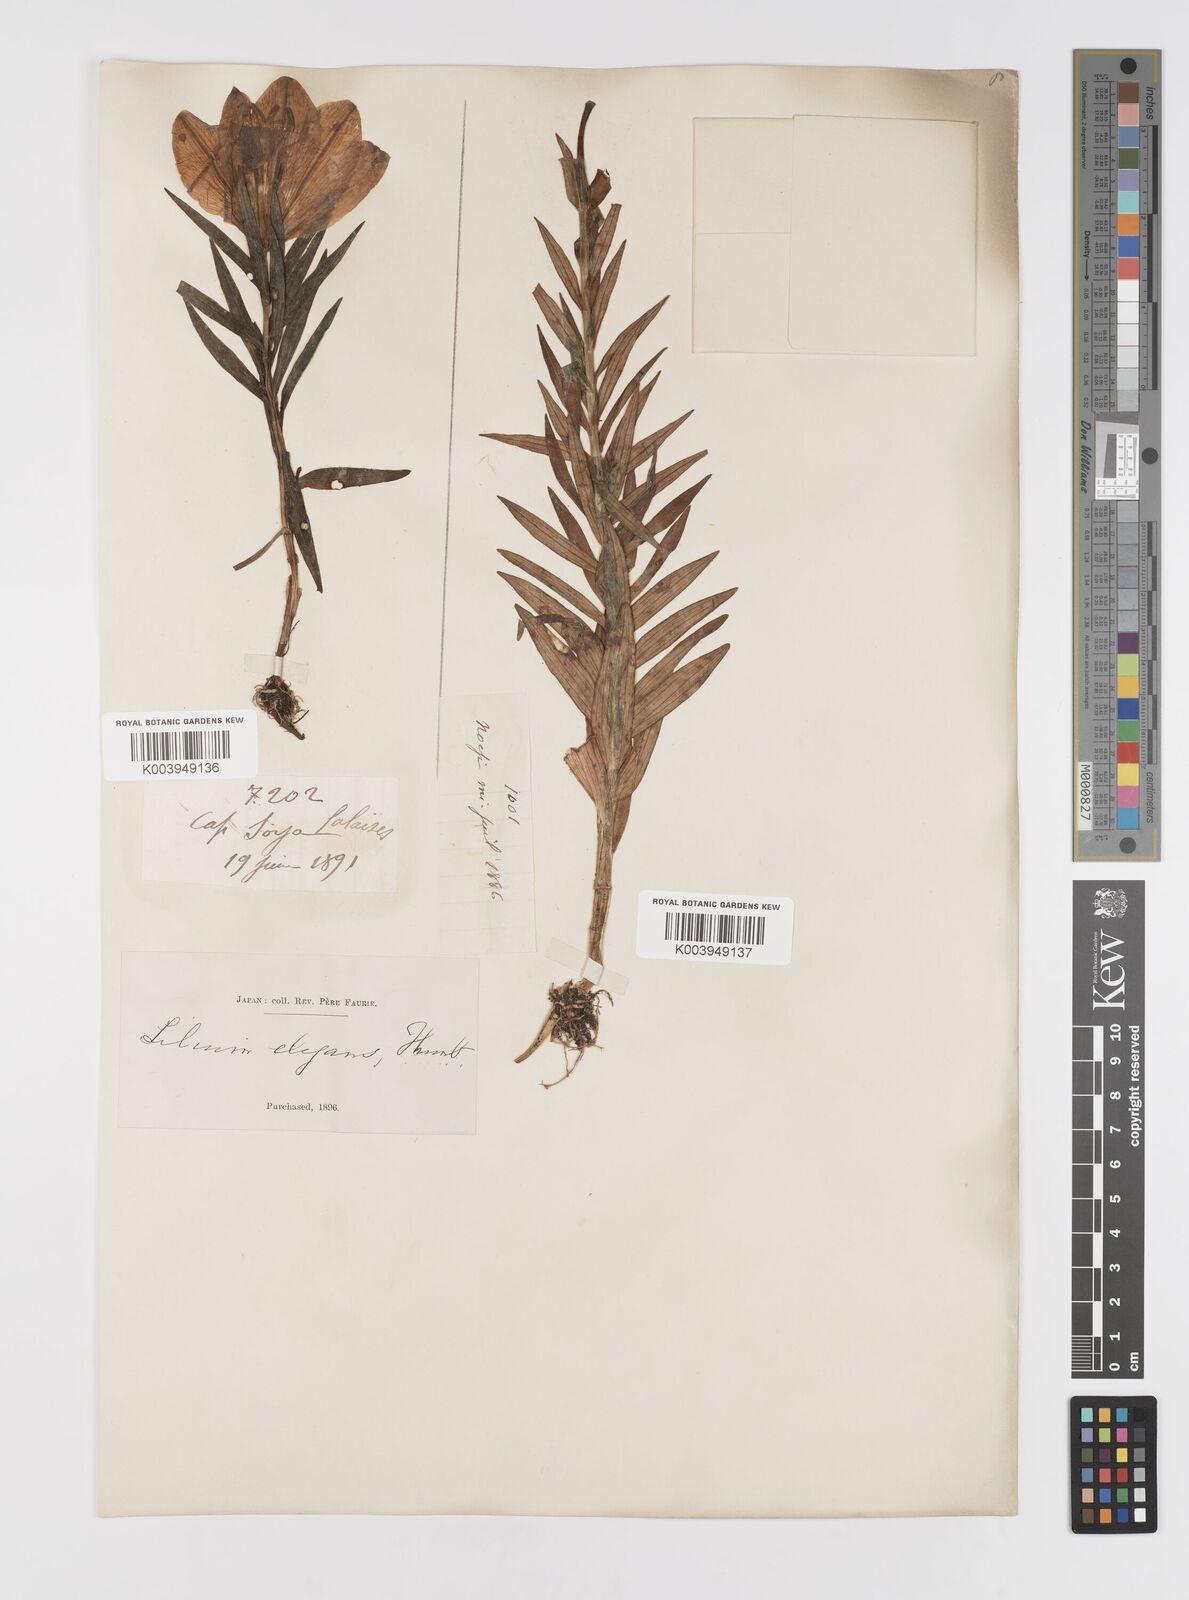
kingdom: Plantae
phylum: Tracheophyta
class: Liliopsida
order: Liliales
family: Liliaceae
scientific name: Liliaceae
